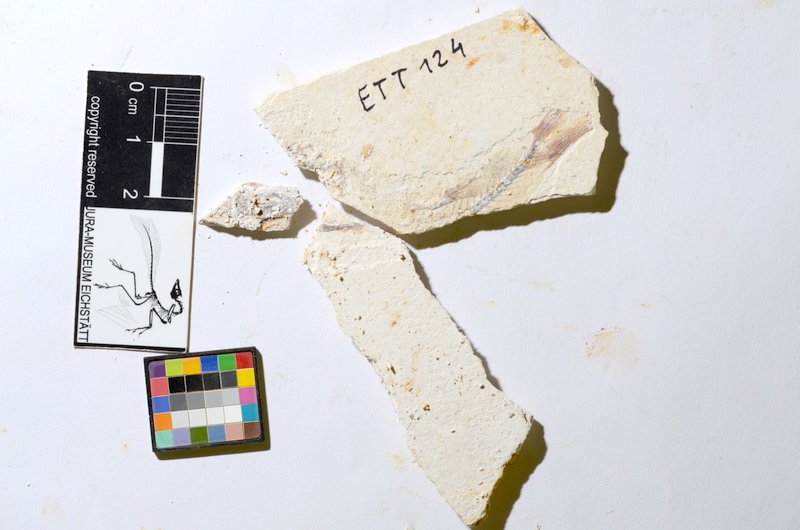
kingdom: Animalia
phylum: Chordata
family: Ascalaboidae
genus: Ebertichthys
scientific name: Ebertichthys ettlingensis
